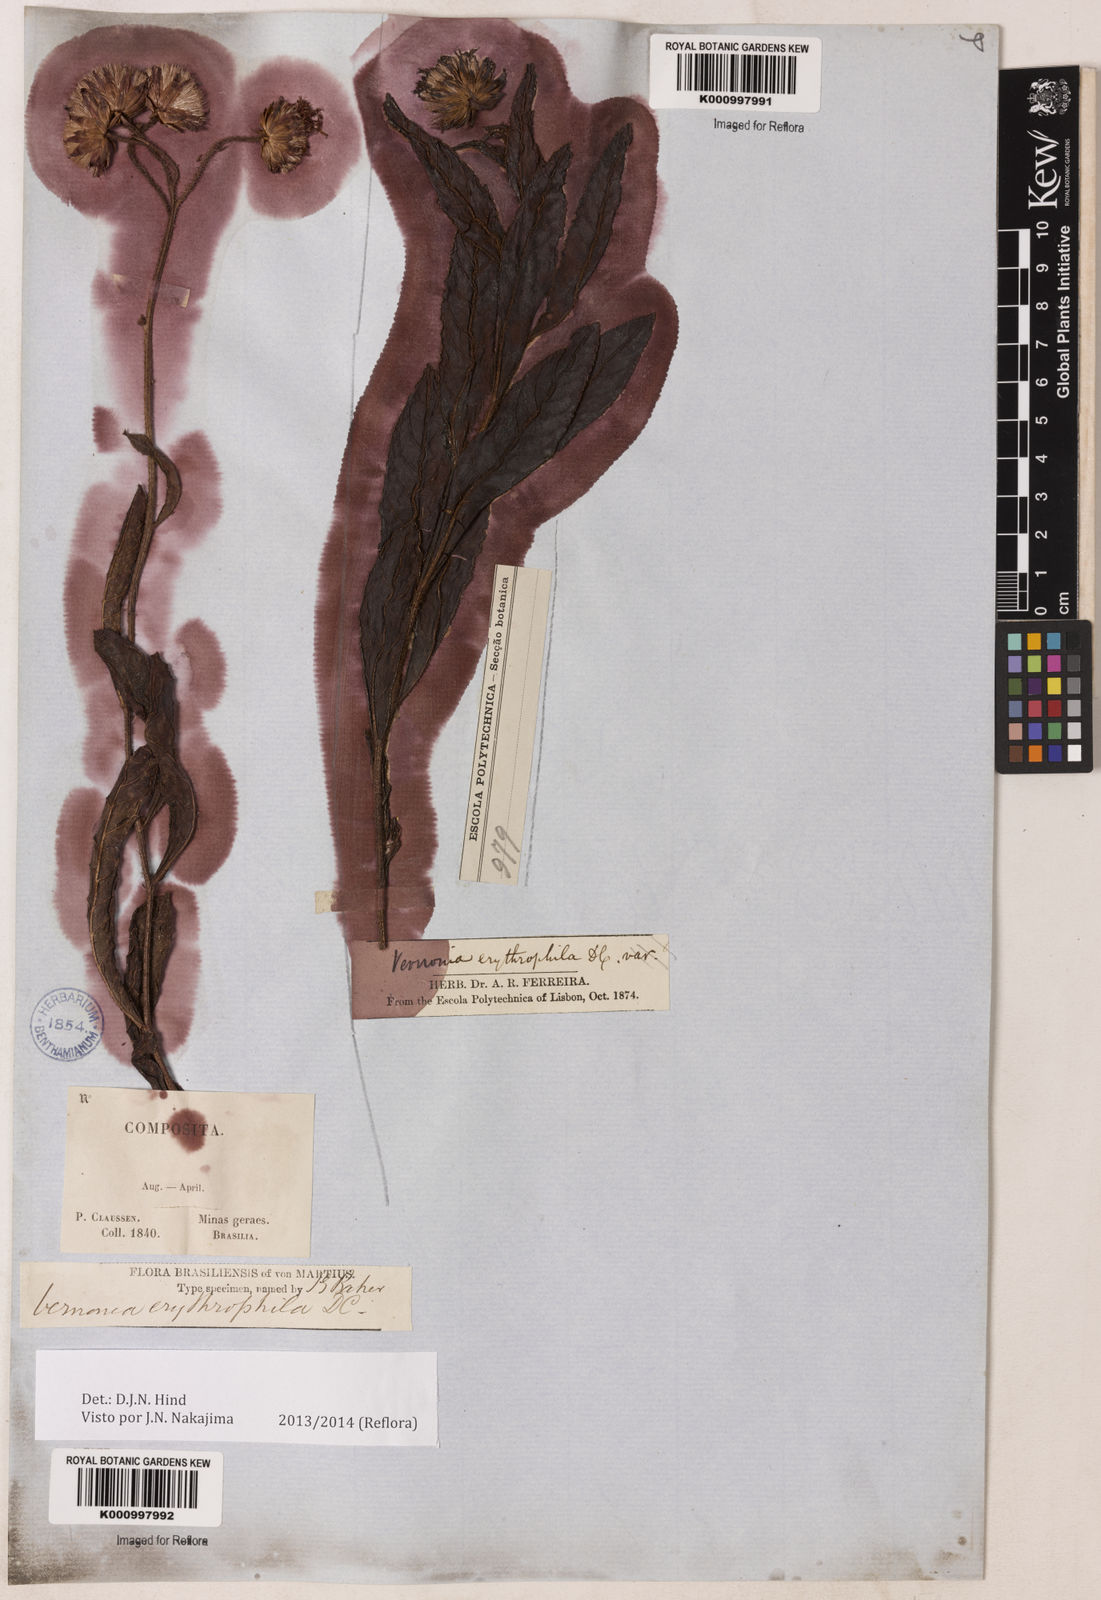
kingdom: Plantae
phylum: Tracheophyta
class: Magnoliopsida
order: Asterales
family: Asteraceae
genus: Lessingianthus
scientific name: Lessingianthus erythrophilus
